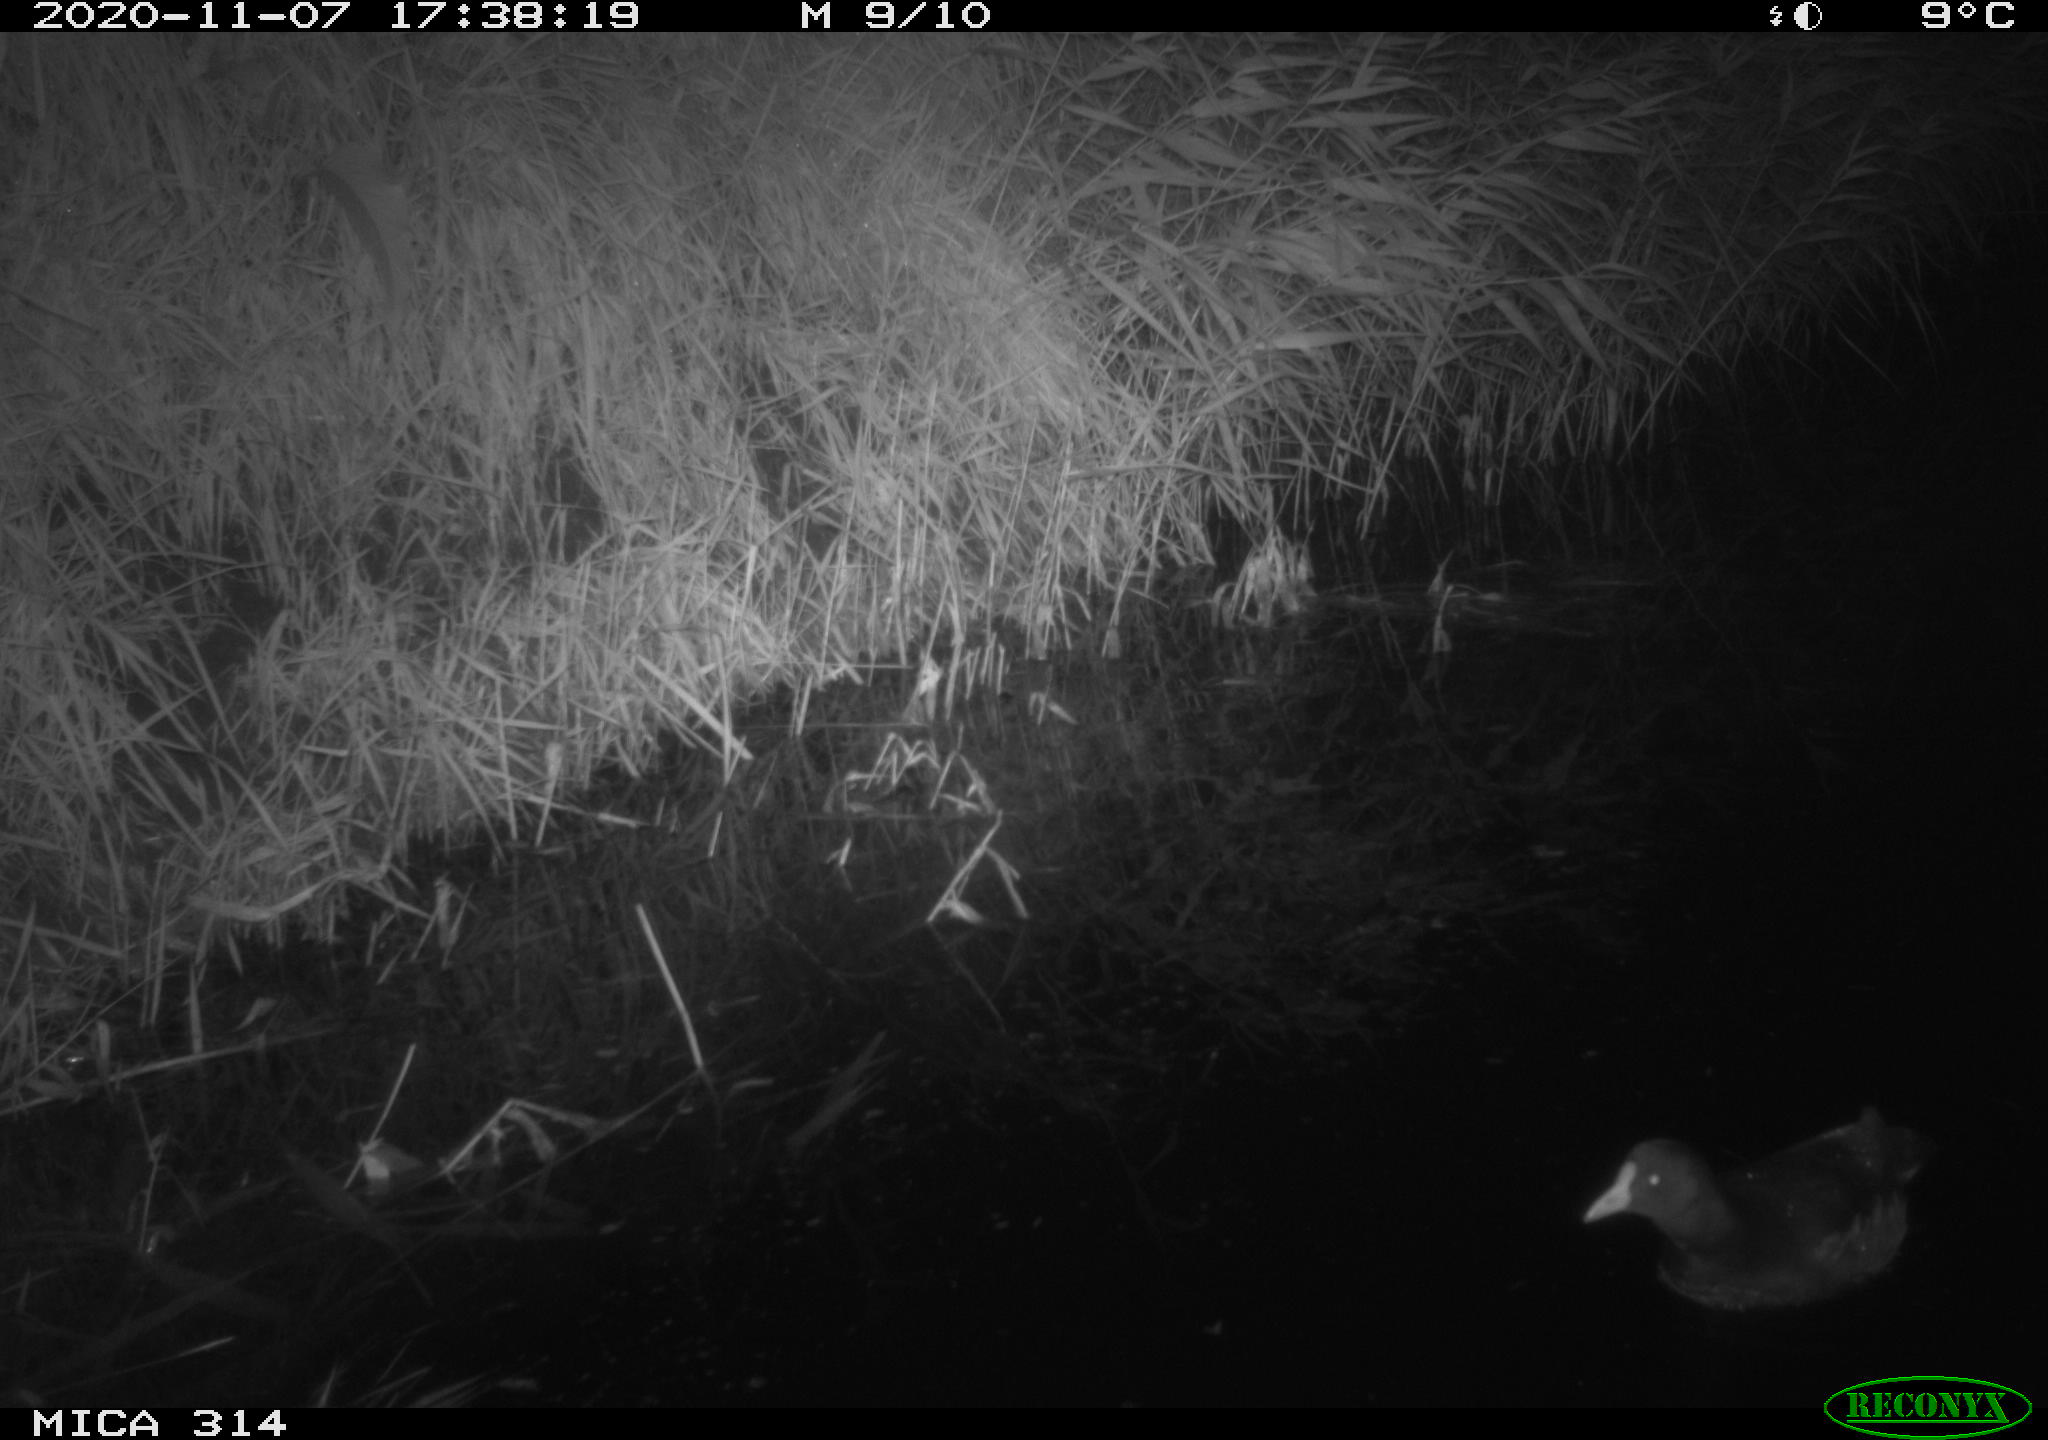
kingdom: Animalia
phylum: Chordata
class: Aves
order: Gruiformes
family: Rallidae
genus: Gallinula
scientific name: Gallinula chloropus
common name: Common moorhen
